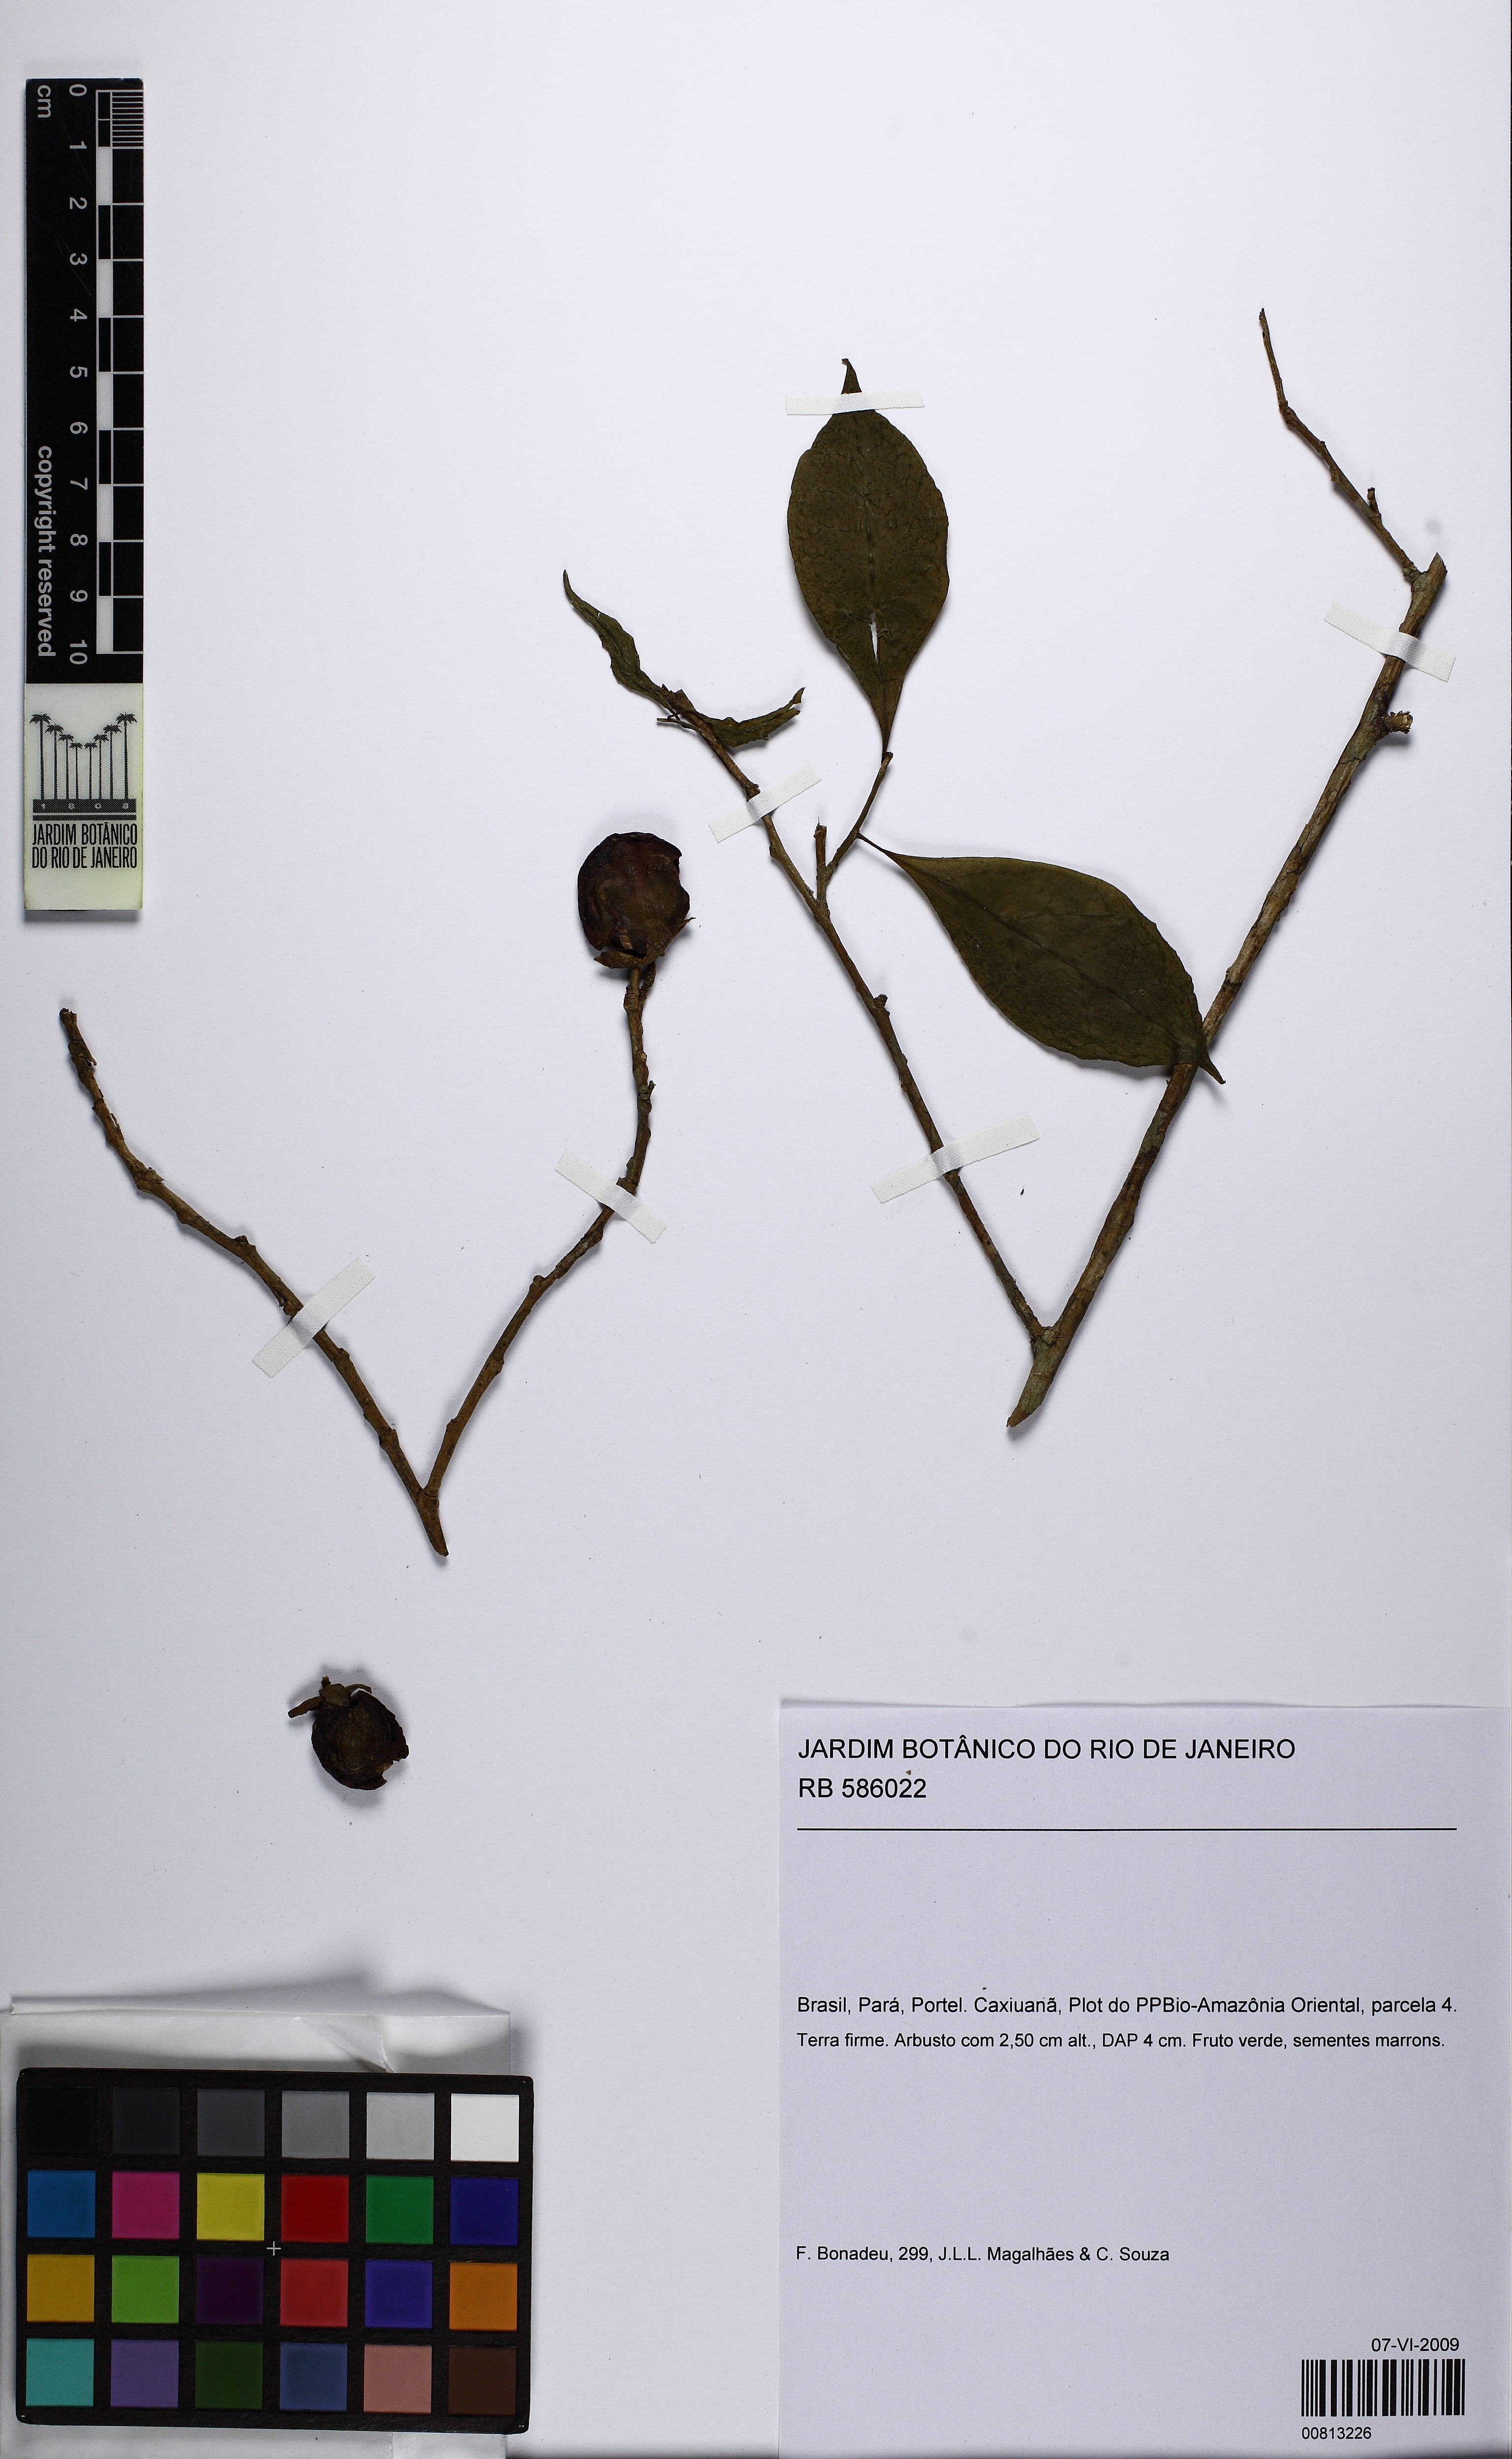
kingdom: Plantae
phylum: Tracheophyta
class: Magnoliopsida
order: Solanales
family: Solanaceae
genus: Solanum
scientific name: Solanum
